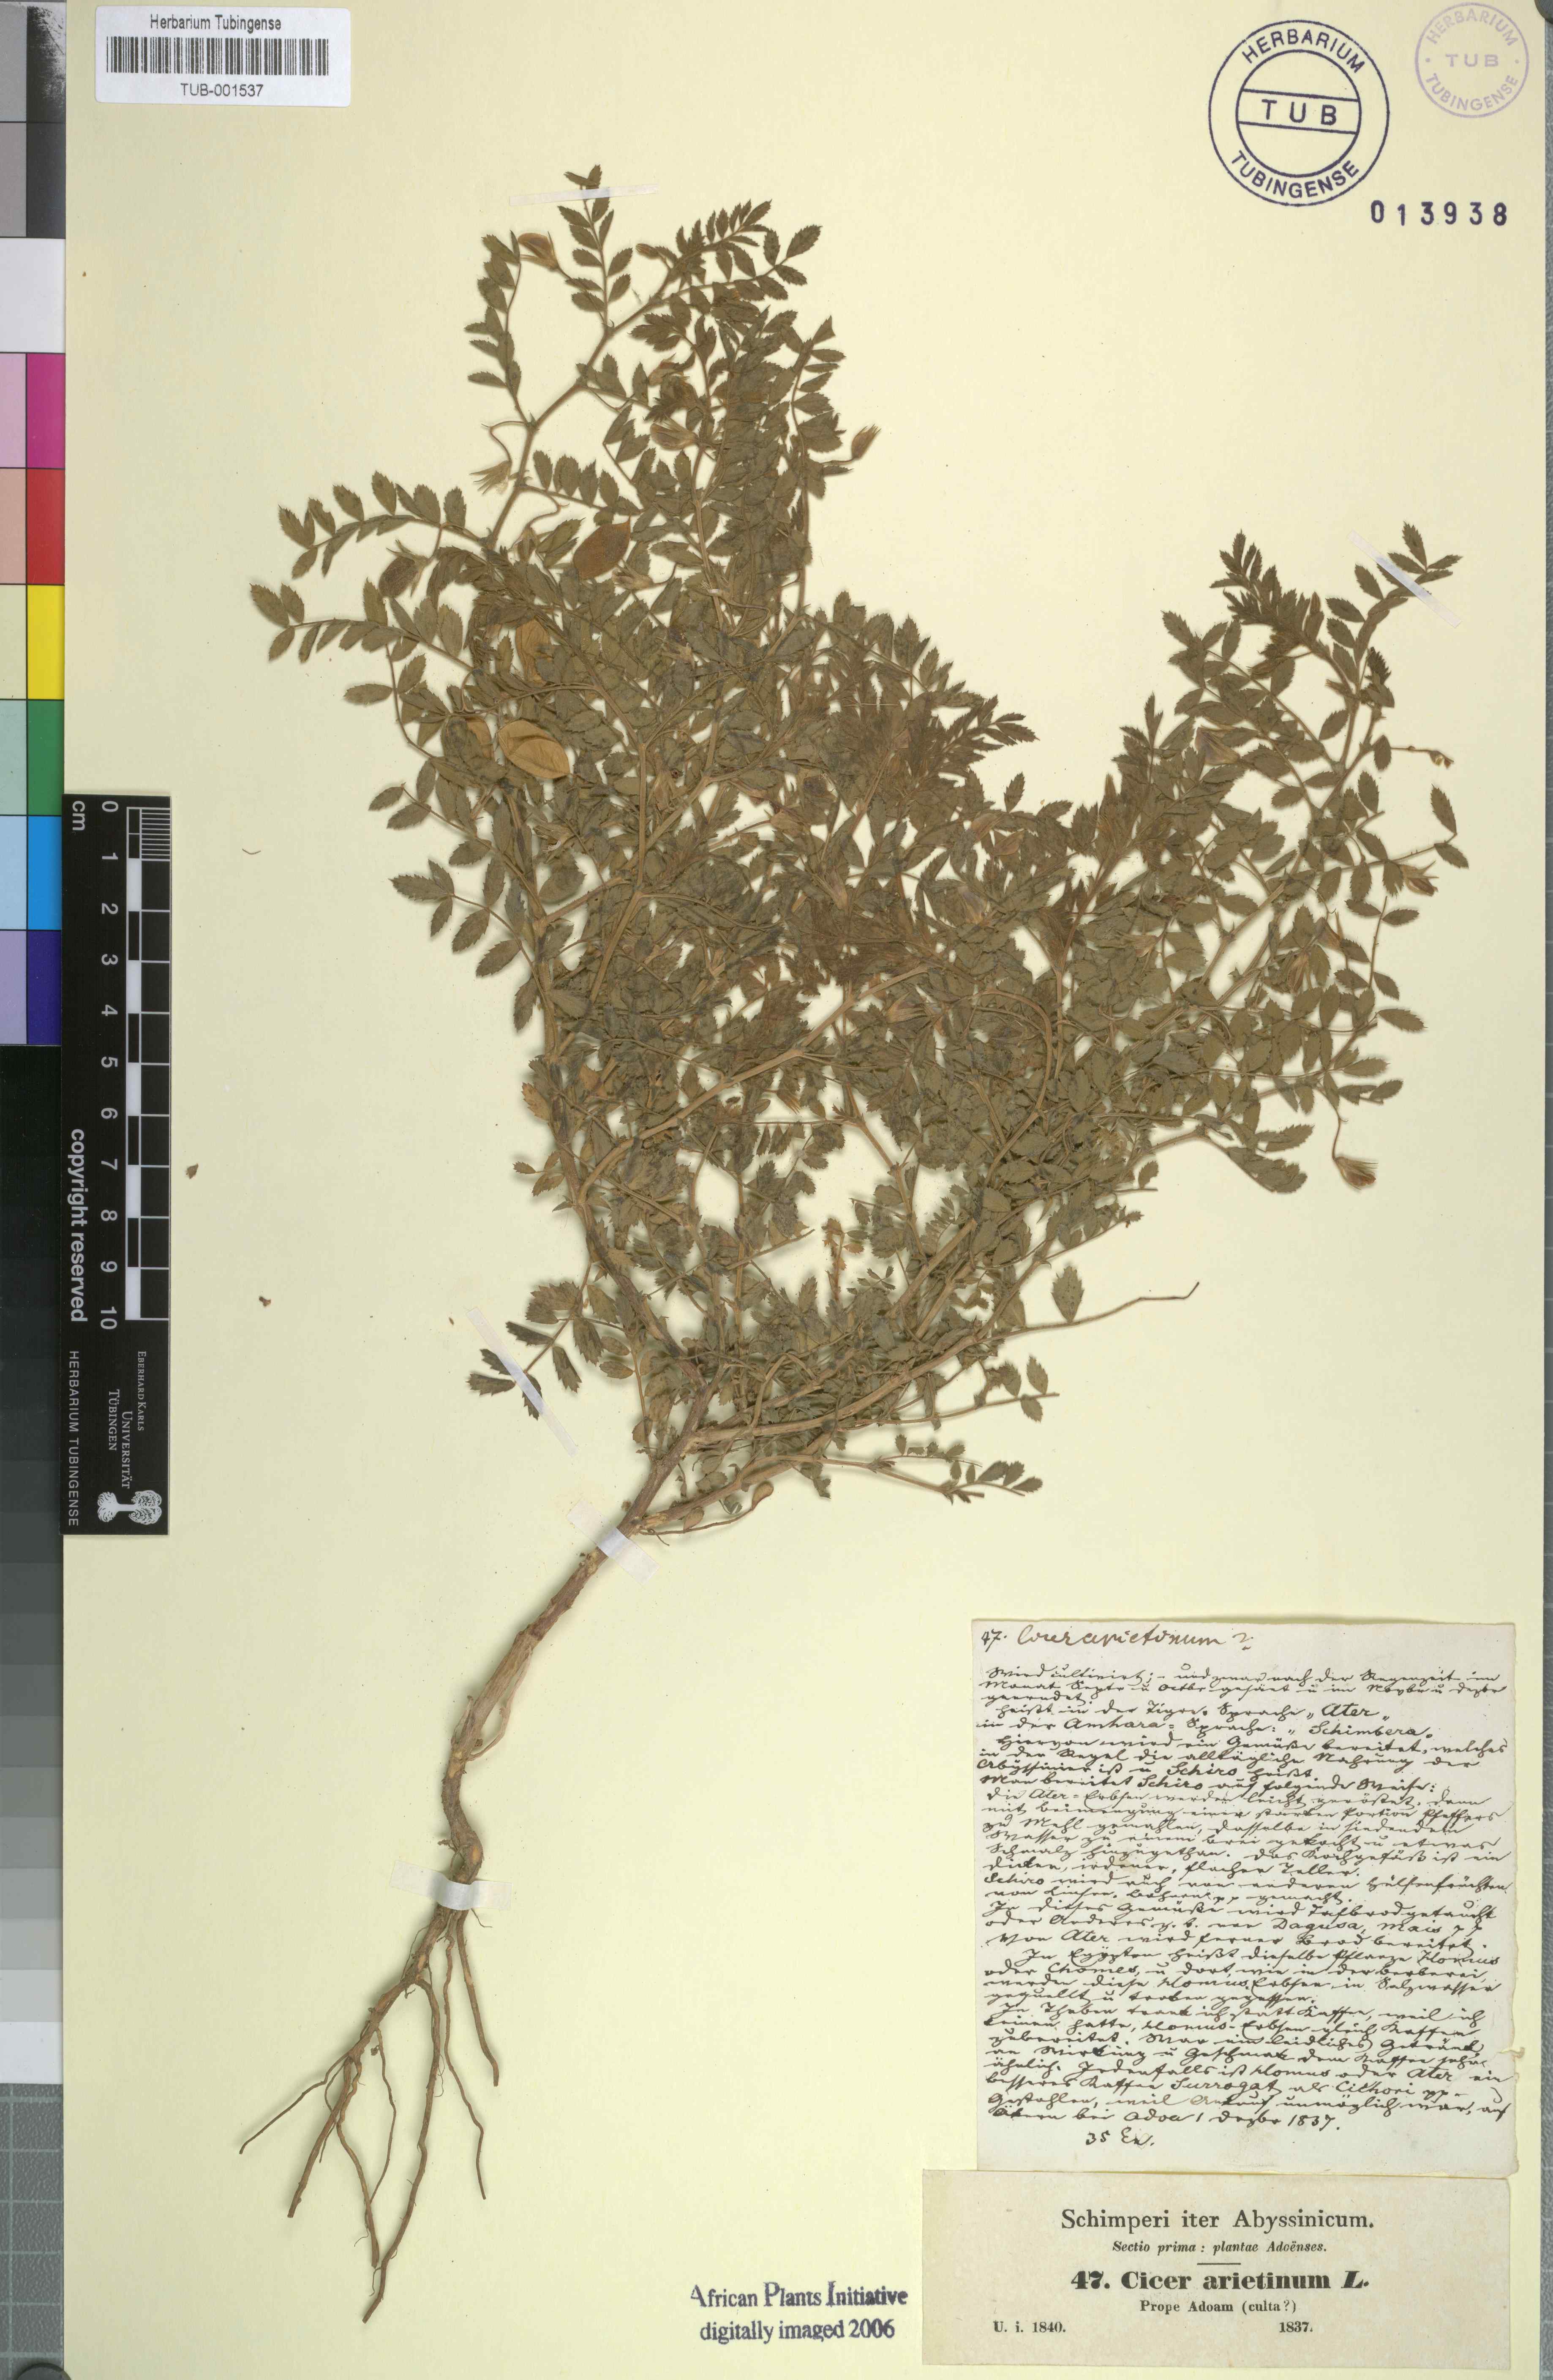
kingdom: Plantae
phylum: Tracheophyta
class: Magnoliopsida
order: Fabales
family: Fabaceae
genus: Cicer
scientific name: Cicer arietinum
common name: Chick pea
